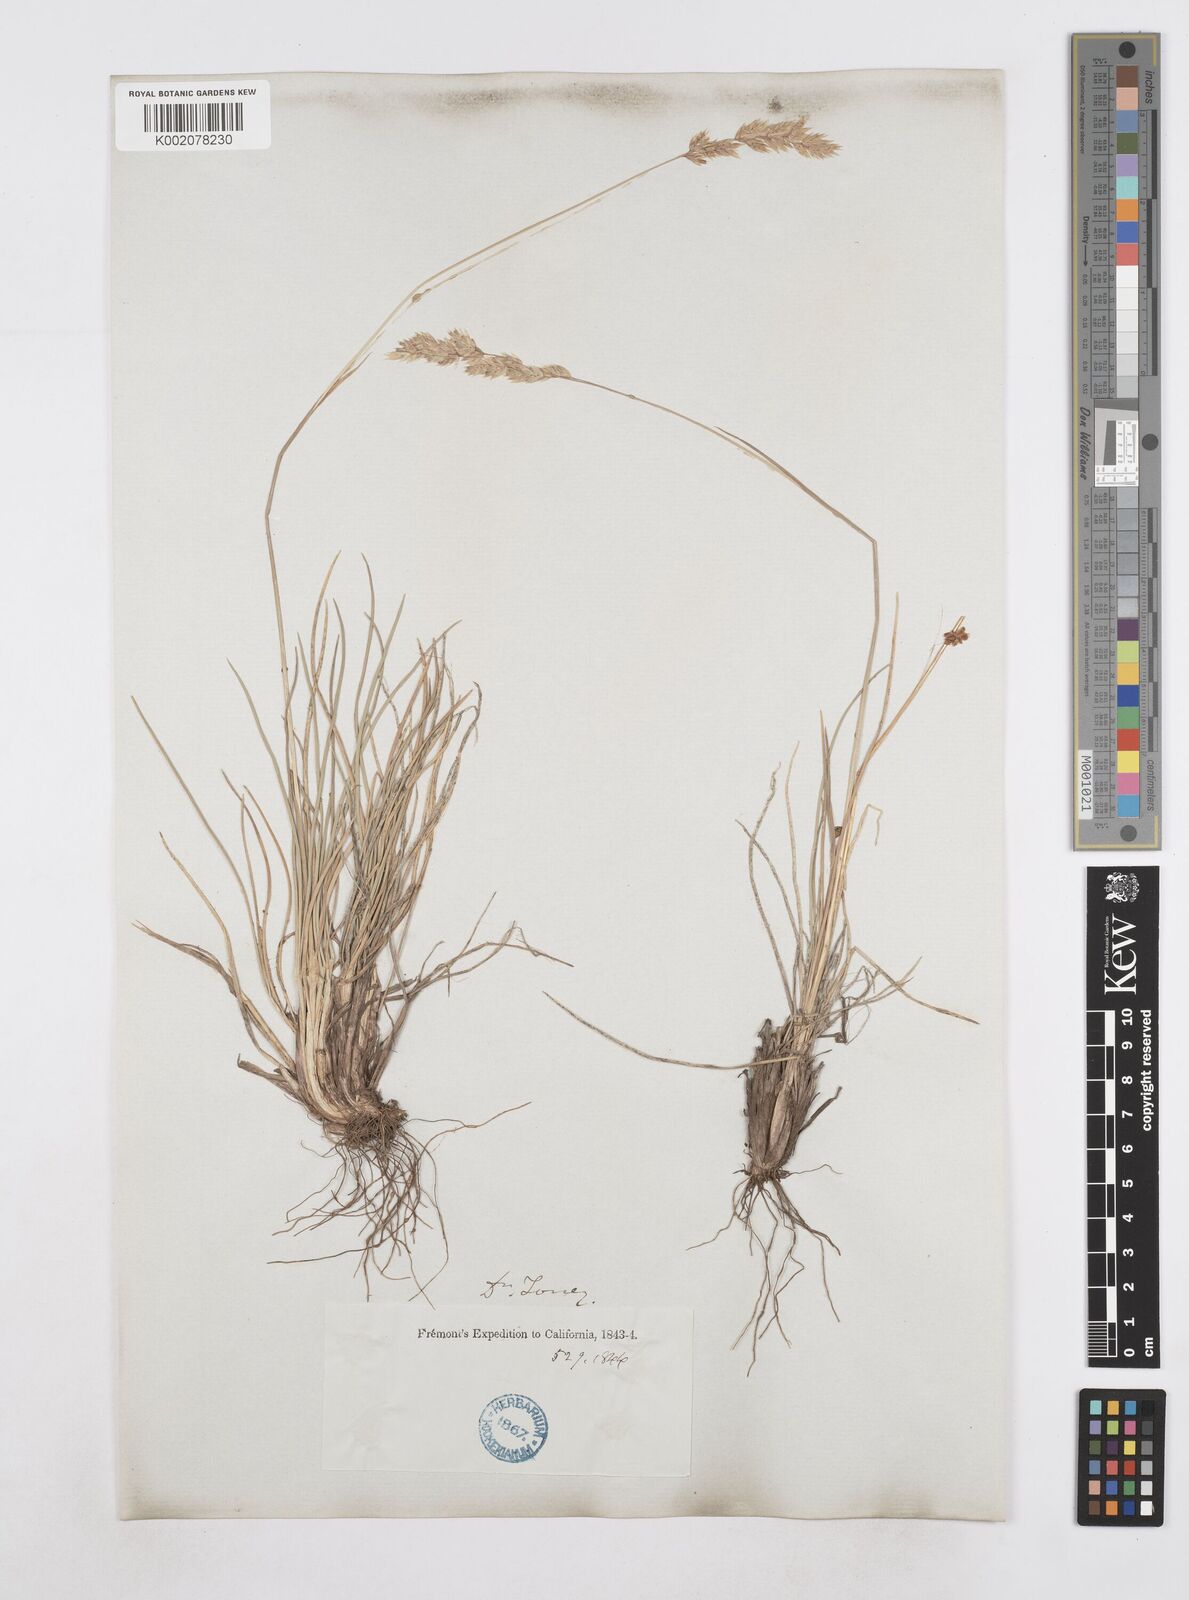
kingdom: Plantae
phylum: Tracheophyta
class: Liliopsida
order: Poales
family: Poaceae
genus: Poa
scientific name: Poa
